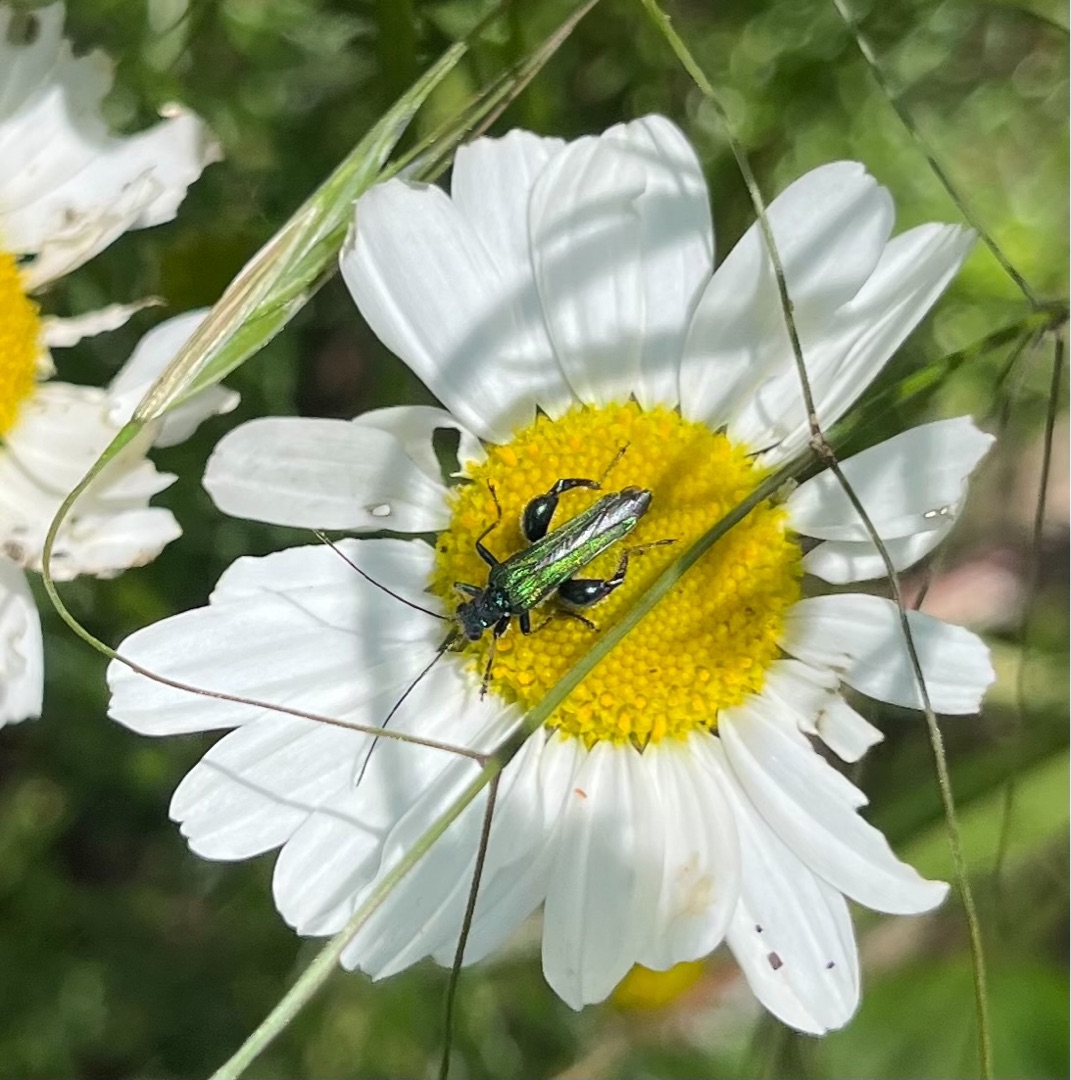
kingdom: Animalia
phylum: Arthropoda
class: Insecta
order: Coleoptera
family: Oedemeridae
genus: Oedemera
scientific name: Oedemera nobilis
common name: Tyklårssolbille
